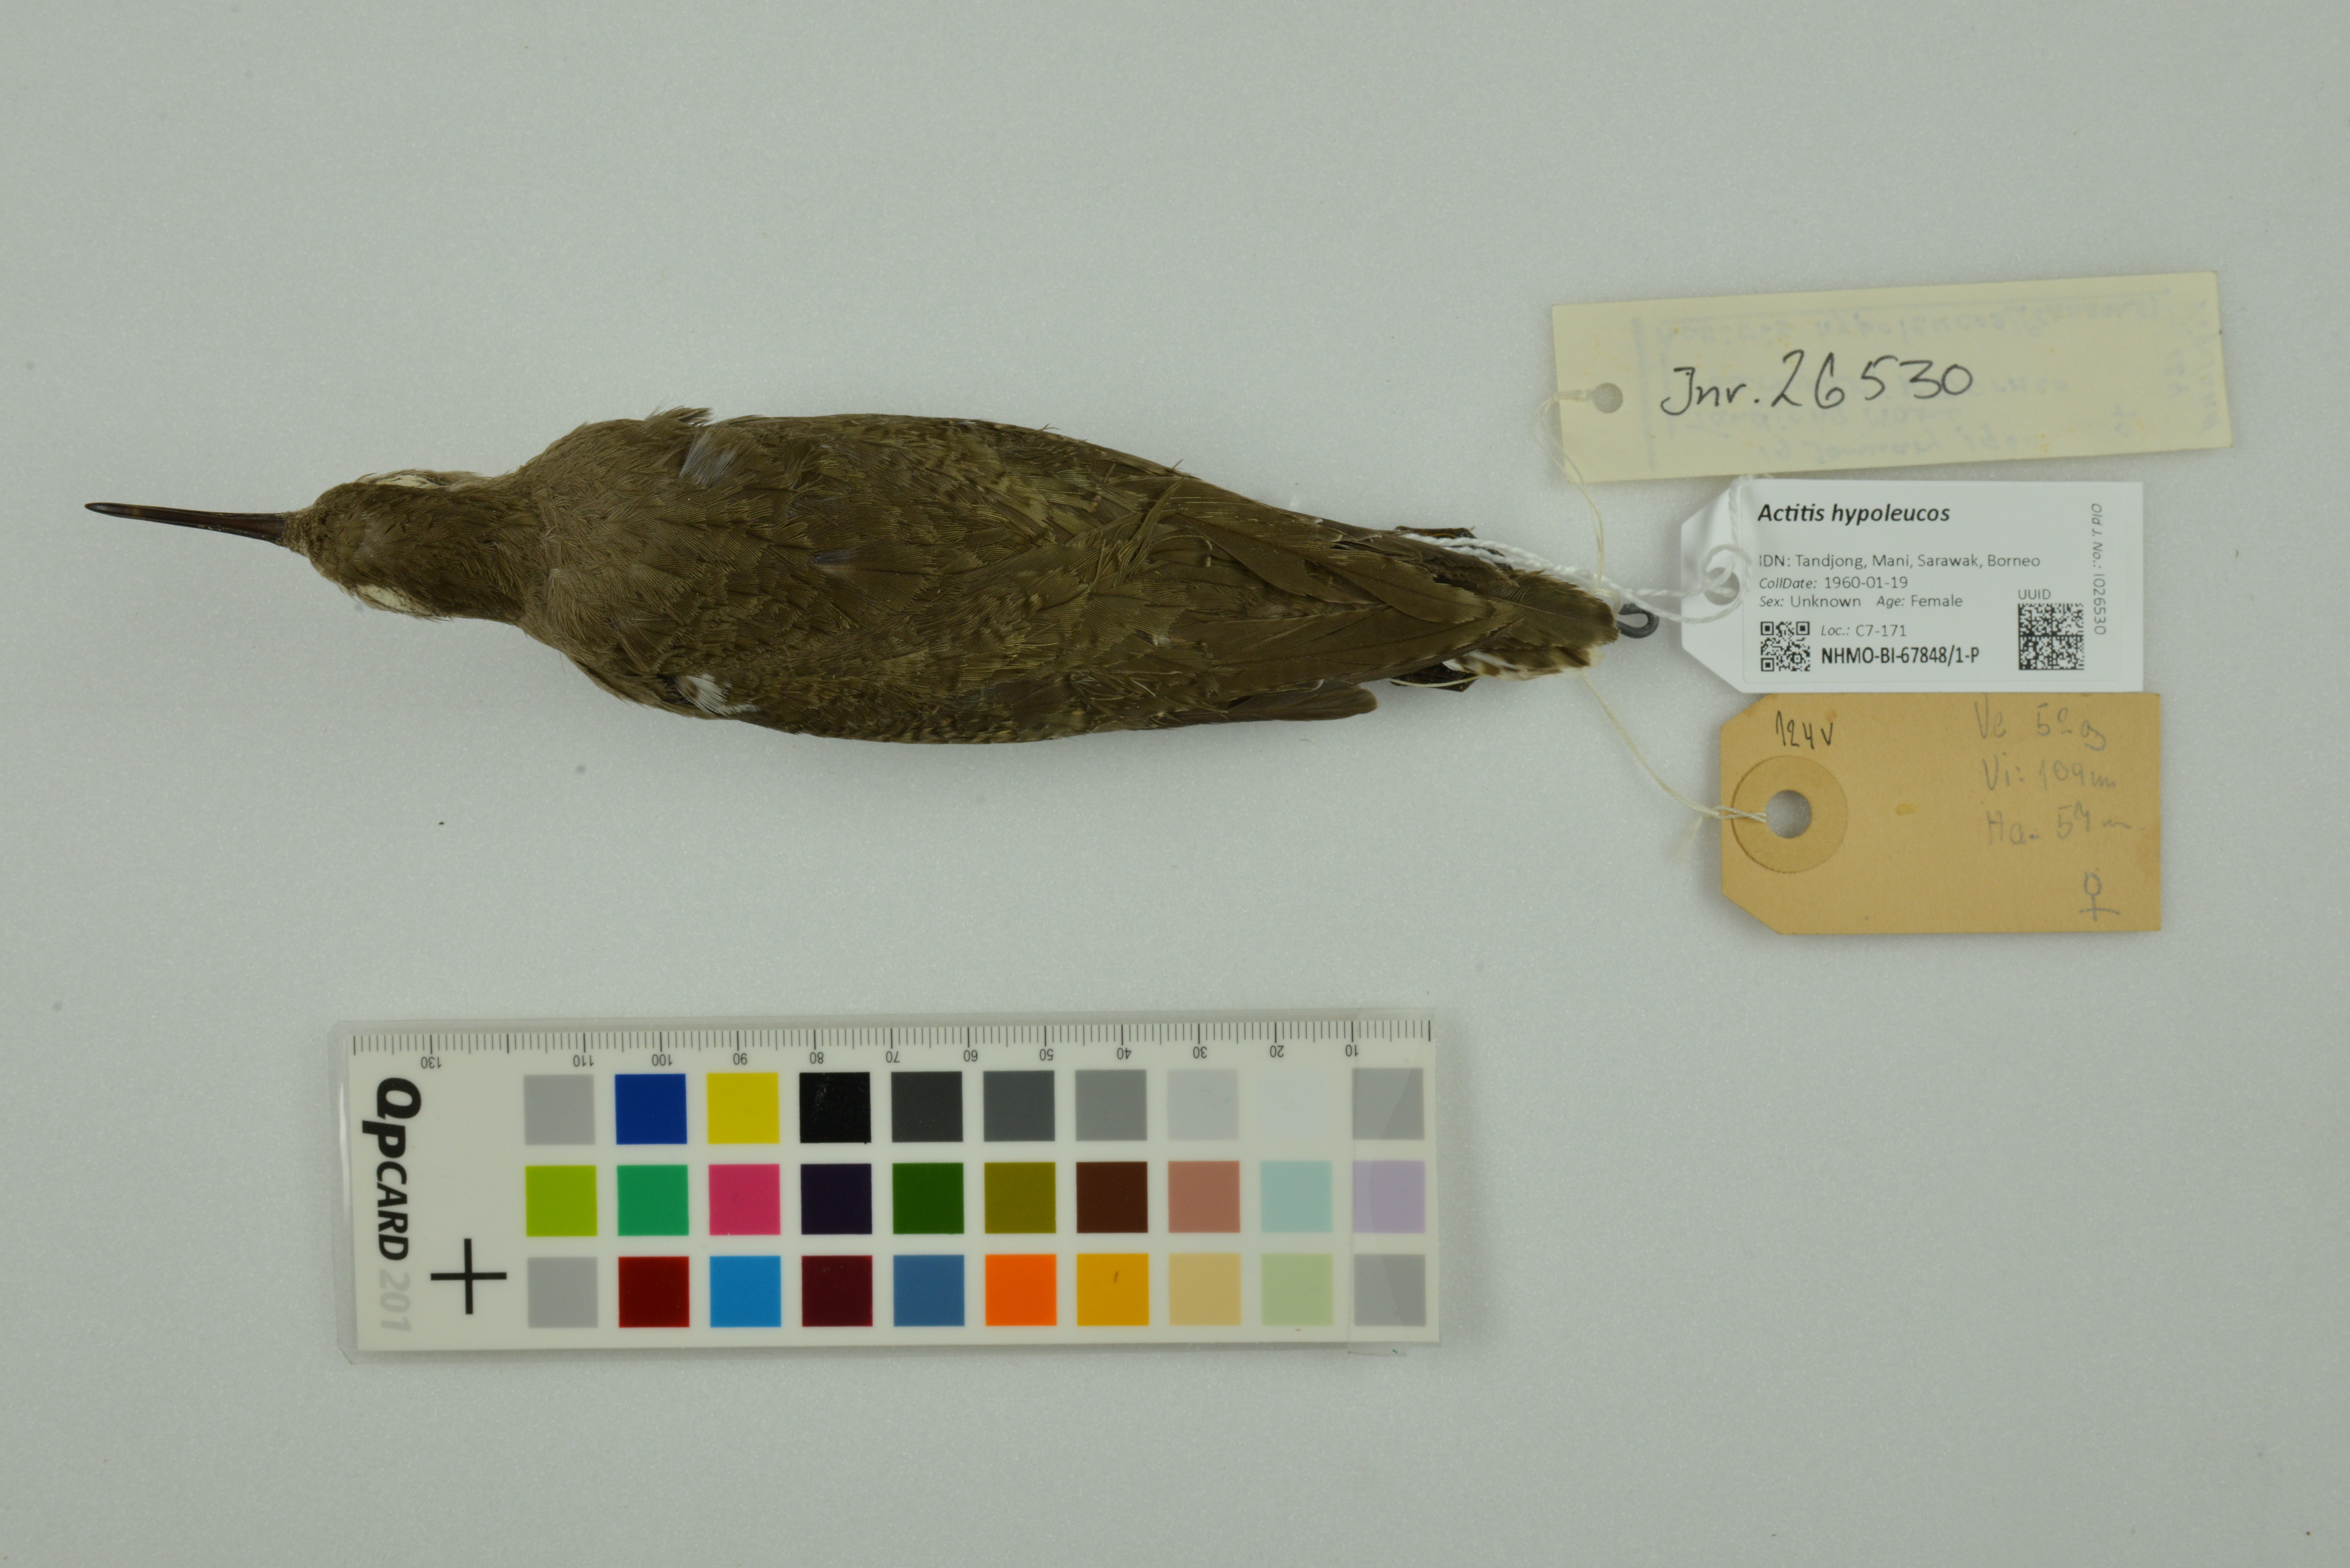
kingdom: Animalia
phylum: Chordata
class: Aves
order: Charadriiformes
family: Scolopacidae
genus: Actitis
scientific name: Actitis hypoleucos
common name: Common sandpiper
